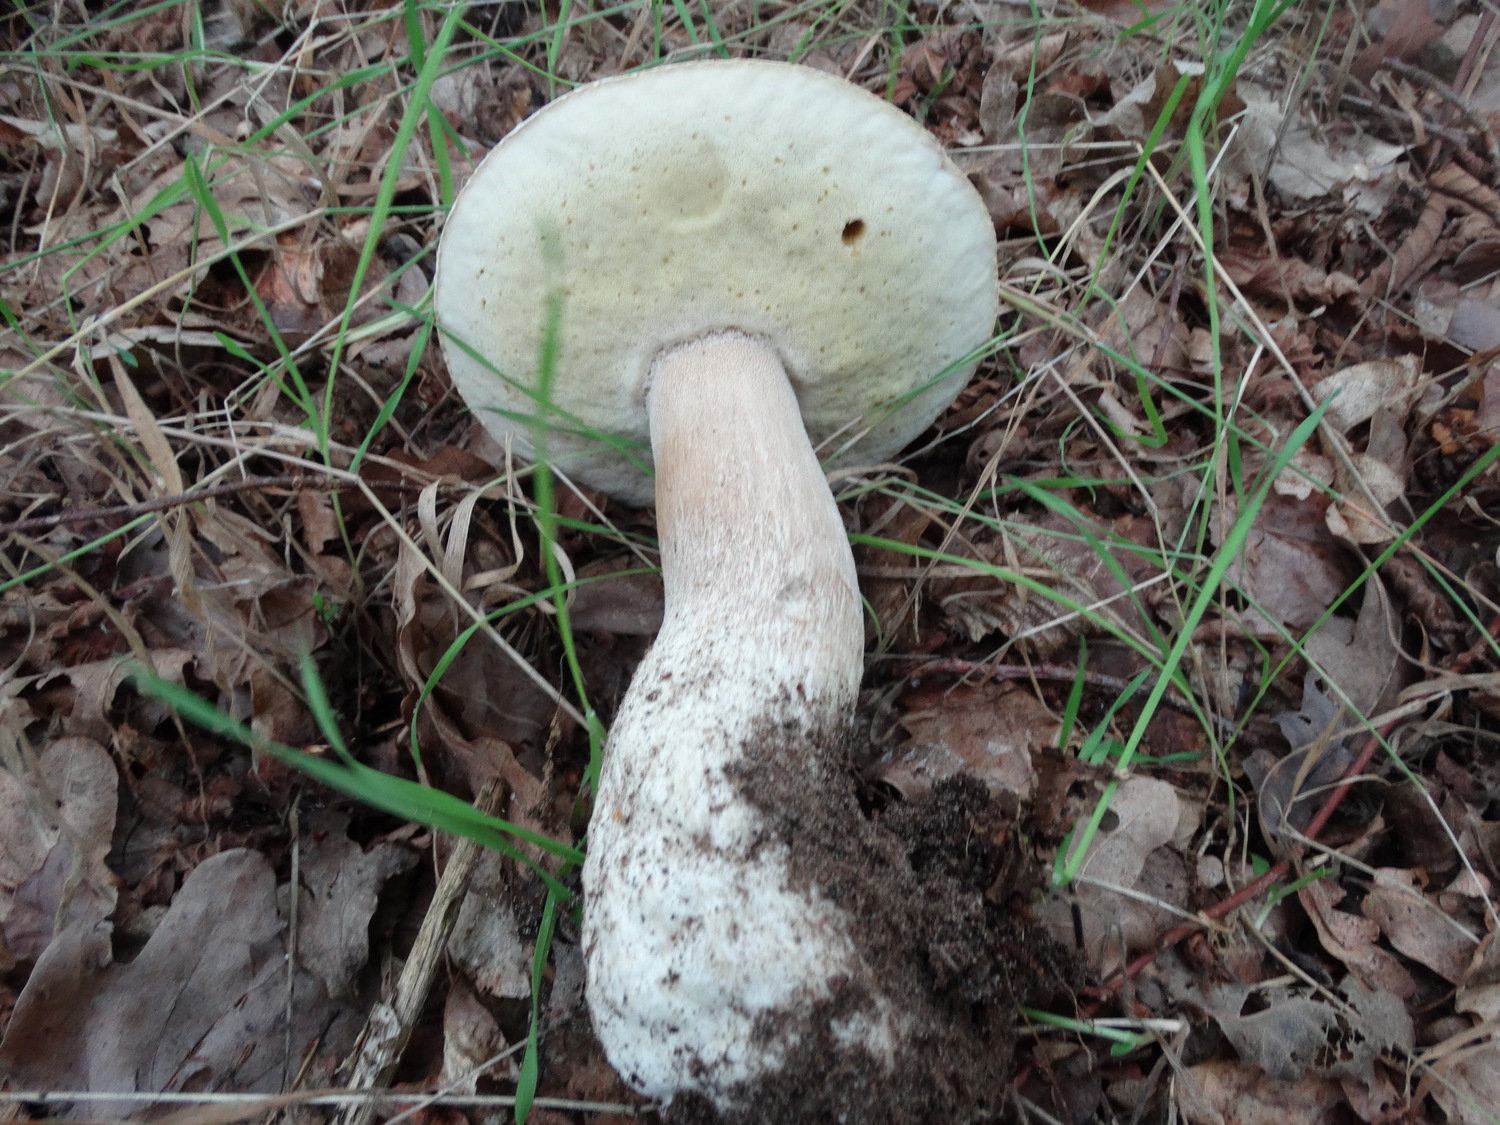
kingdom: Fungi
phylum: Basidiomycota
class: Agaricomycetes
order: Boletales
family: Boletaceae
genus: Boletus
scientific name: Boletus edulis
